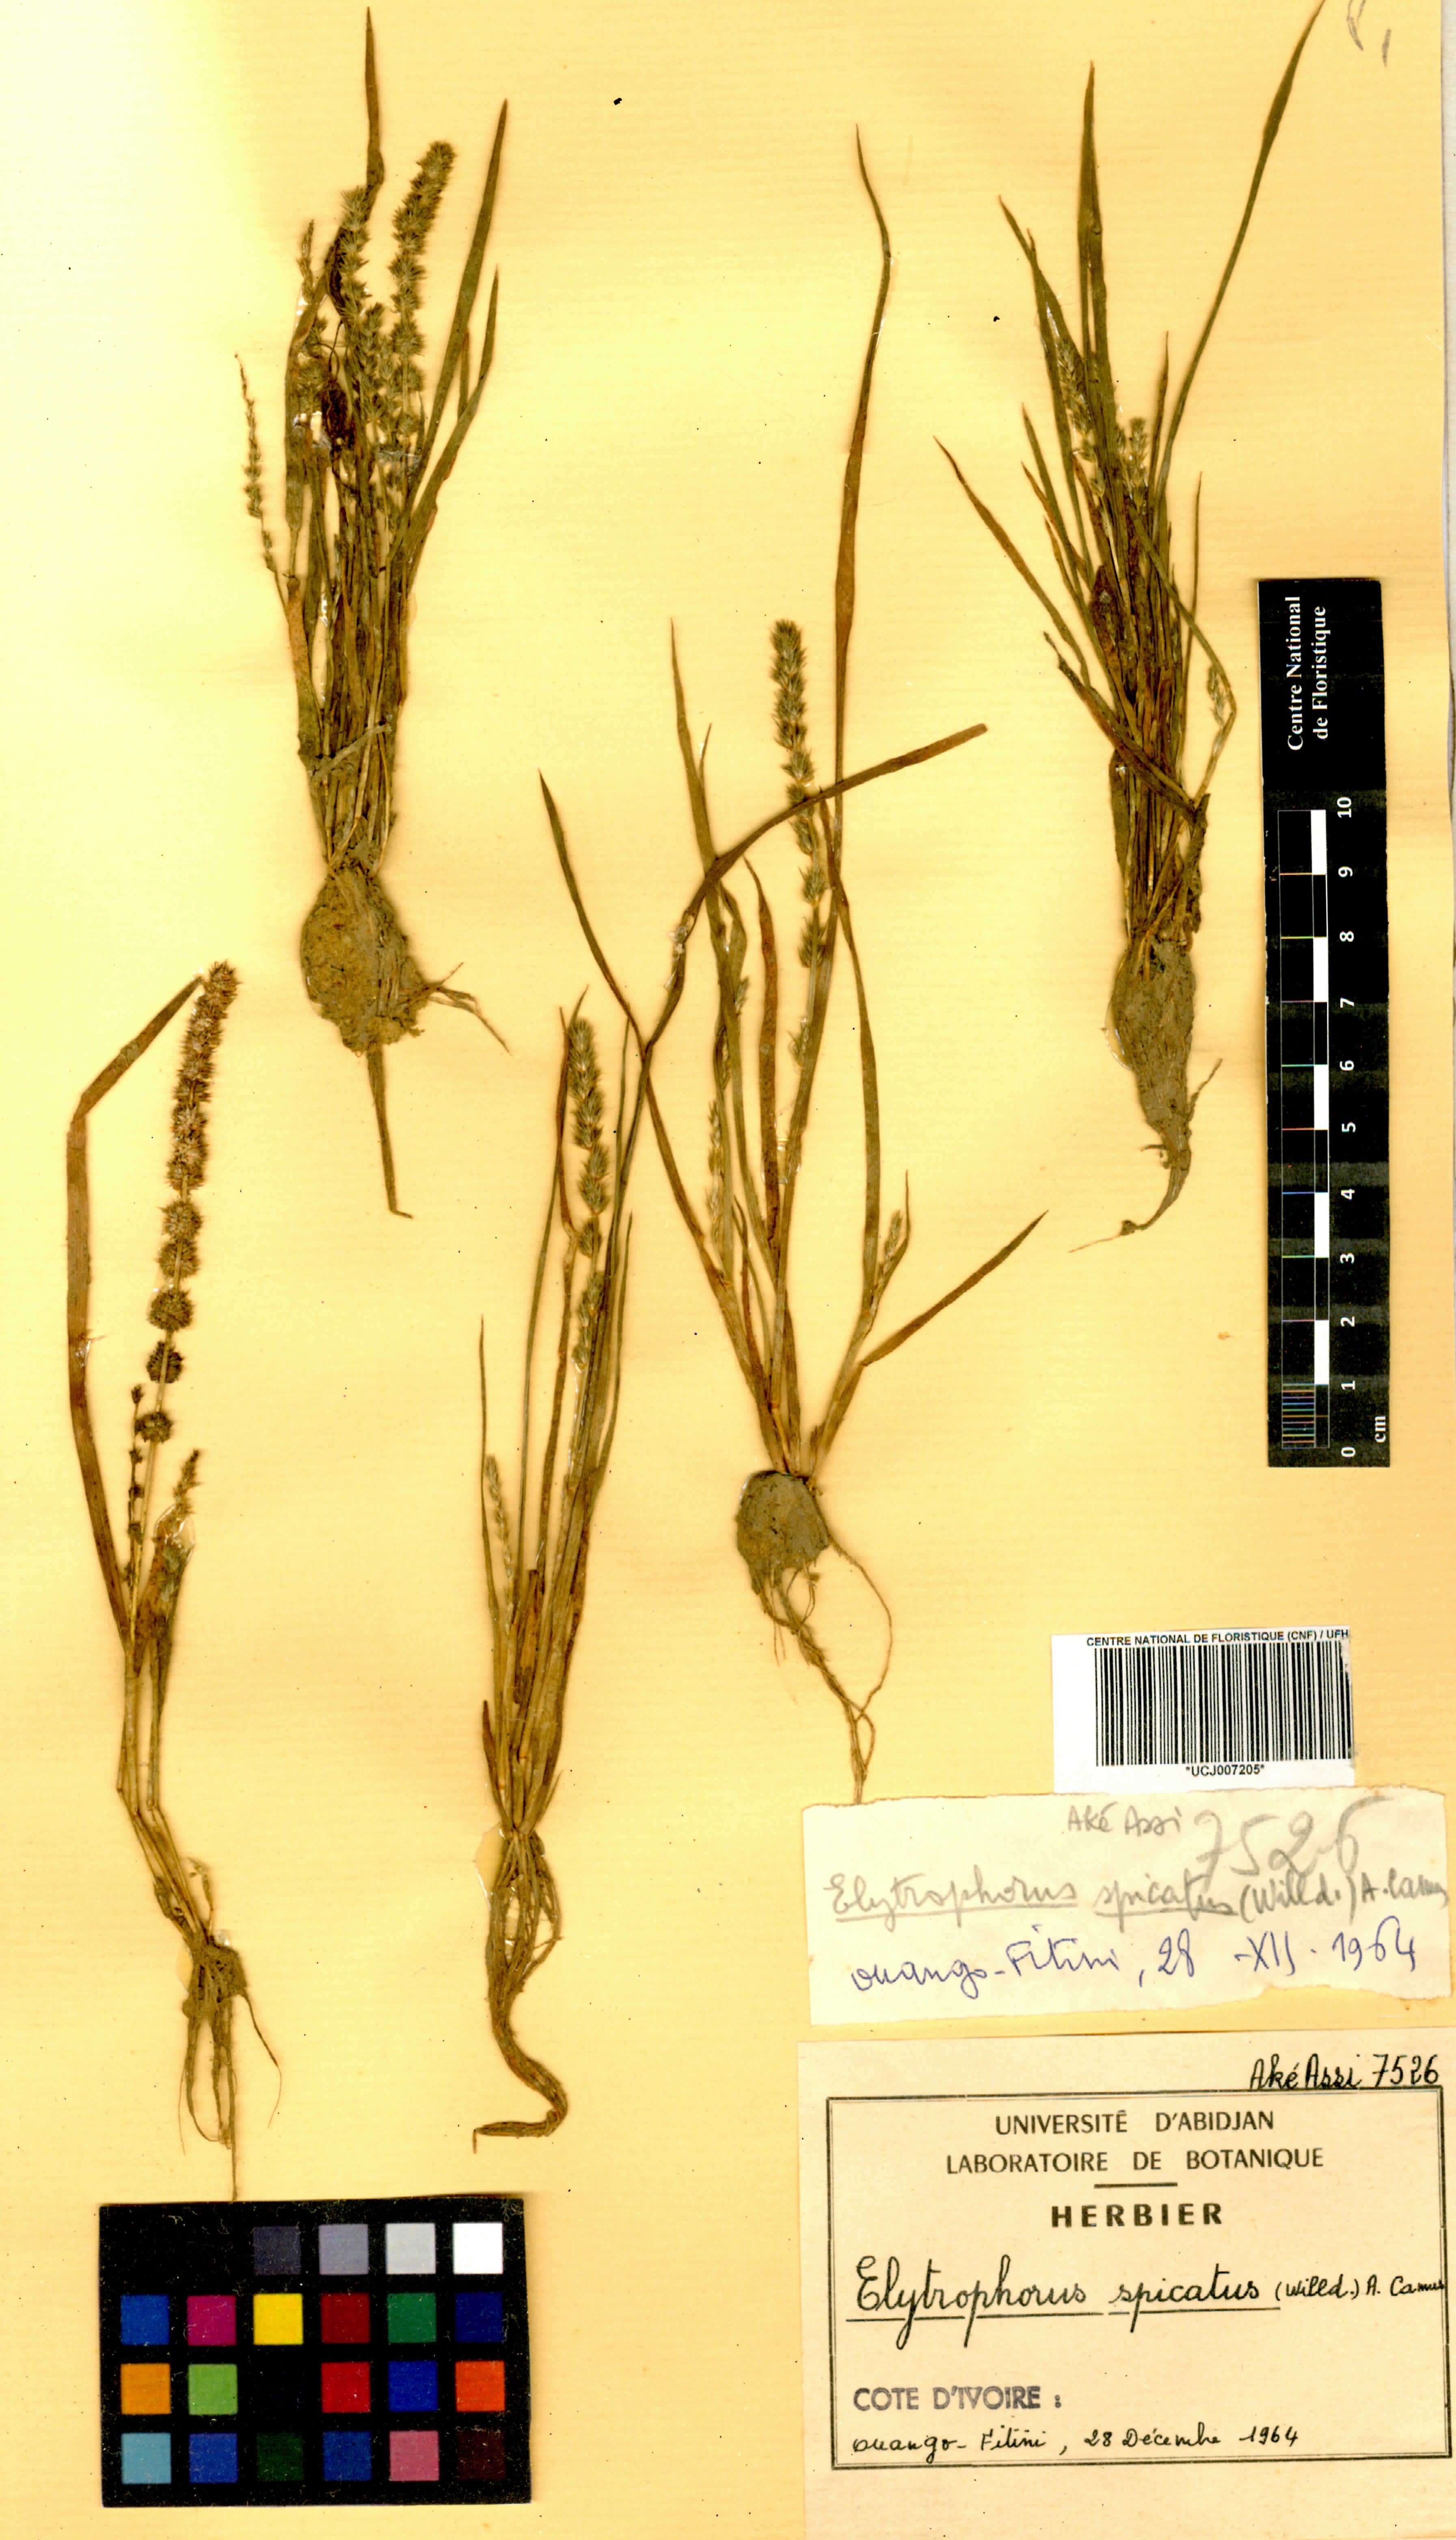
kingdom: Plantae
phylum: Tracheophyta
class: Liliopsida
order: Poales
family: Poaceae
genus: Elytrophorus
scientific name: Elytrophorus spicatus
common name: Spike grass
